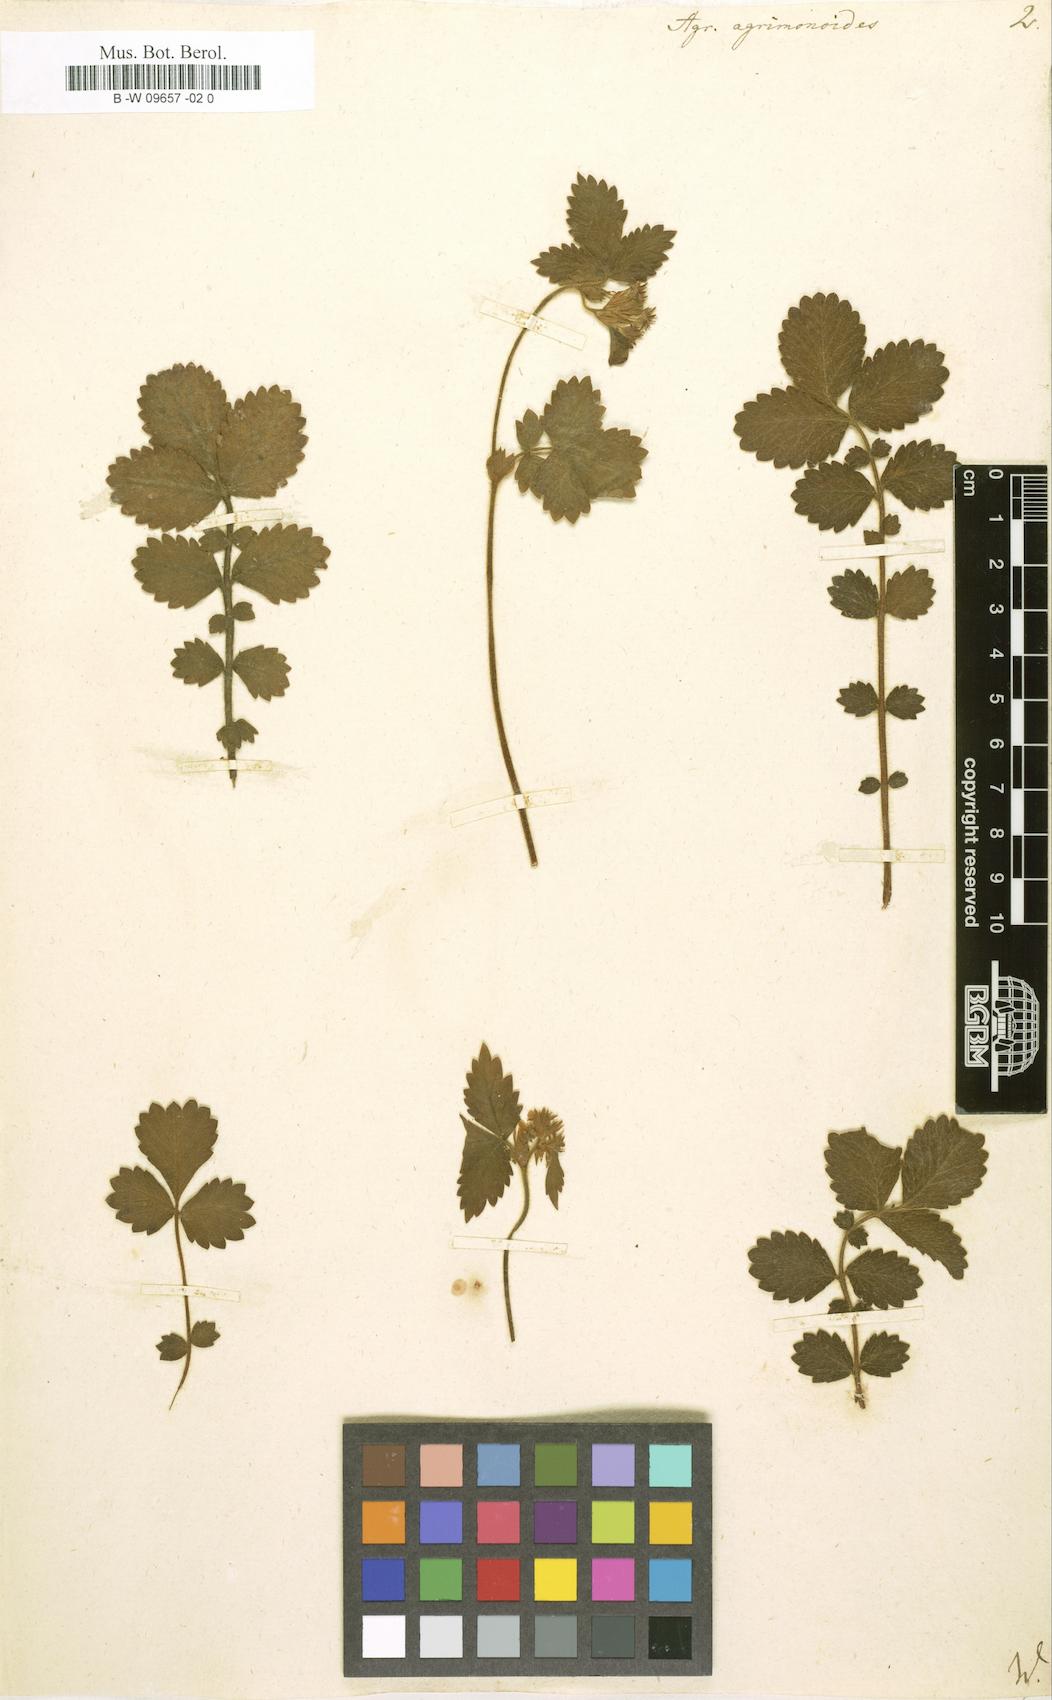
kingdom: Plantae
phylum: Tracheophyta
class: Magnoliopsida
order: Rosales
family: Rosaceae
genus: Aremonia
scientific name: Aremonia agrimonoides
